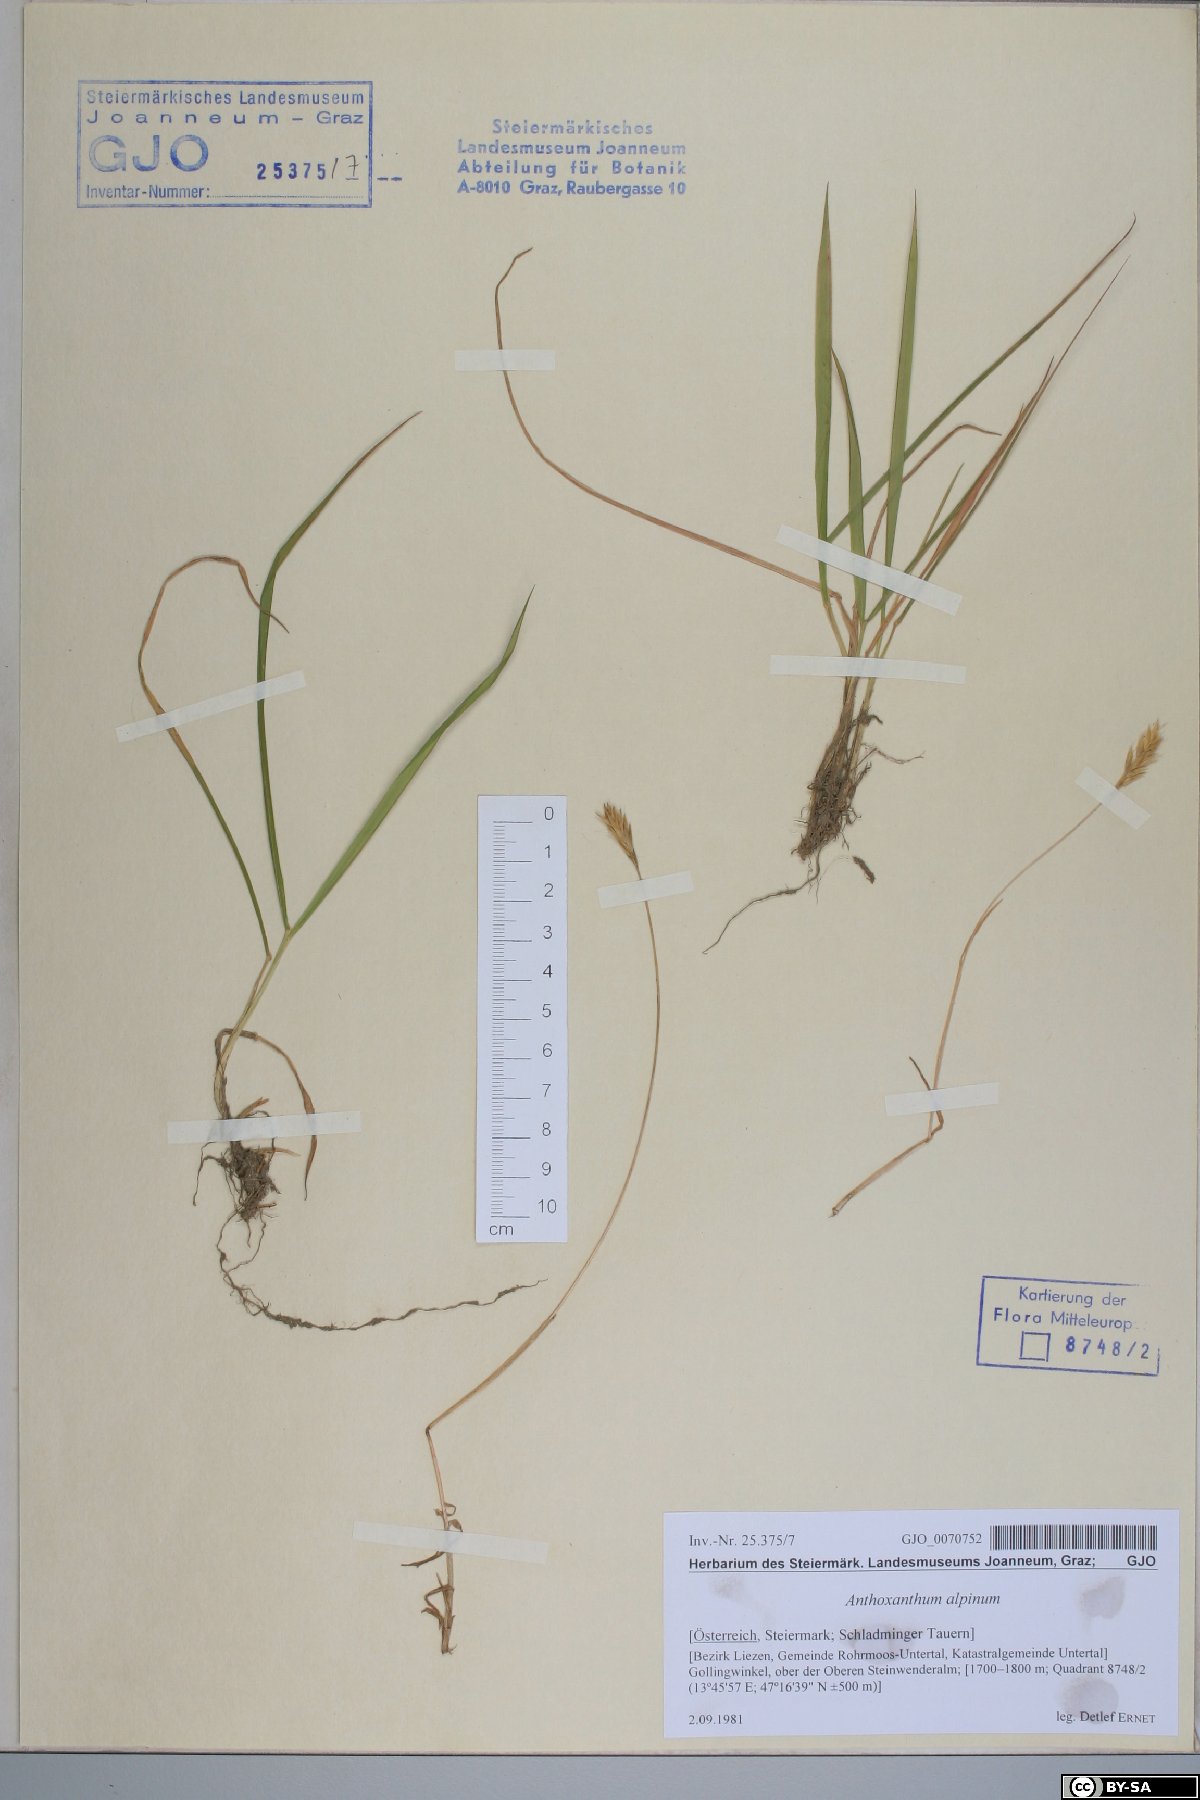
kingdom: Plantae
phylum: Tracheophyta
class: Liliopsida
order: Poales
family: Poaceae
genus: Anthoxanthum
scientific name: Anthoxanthum nipponicum
